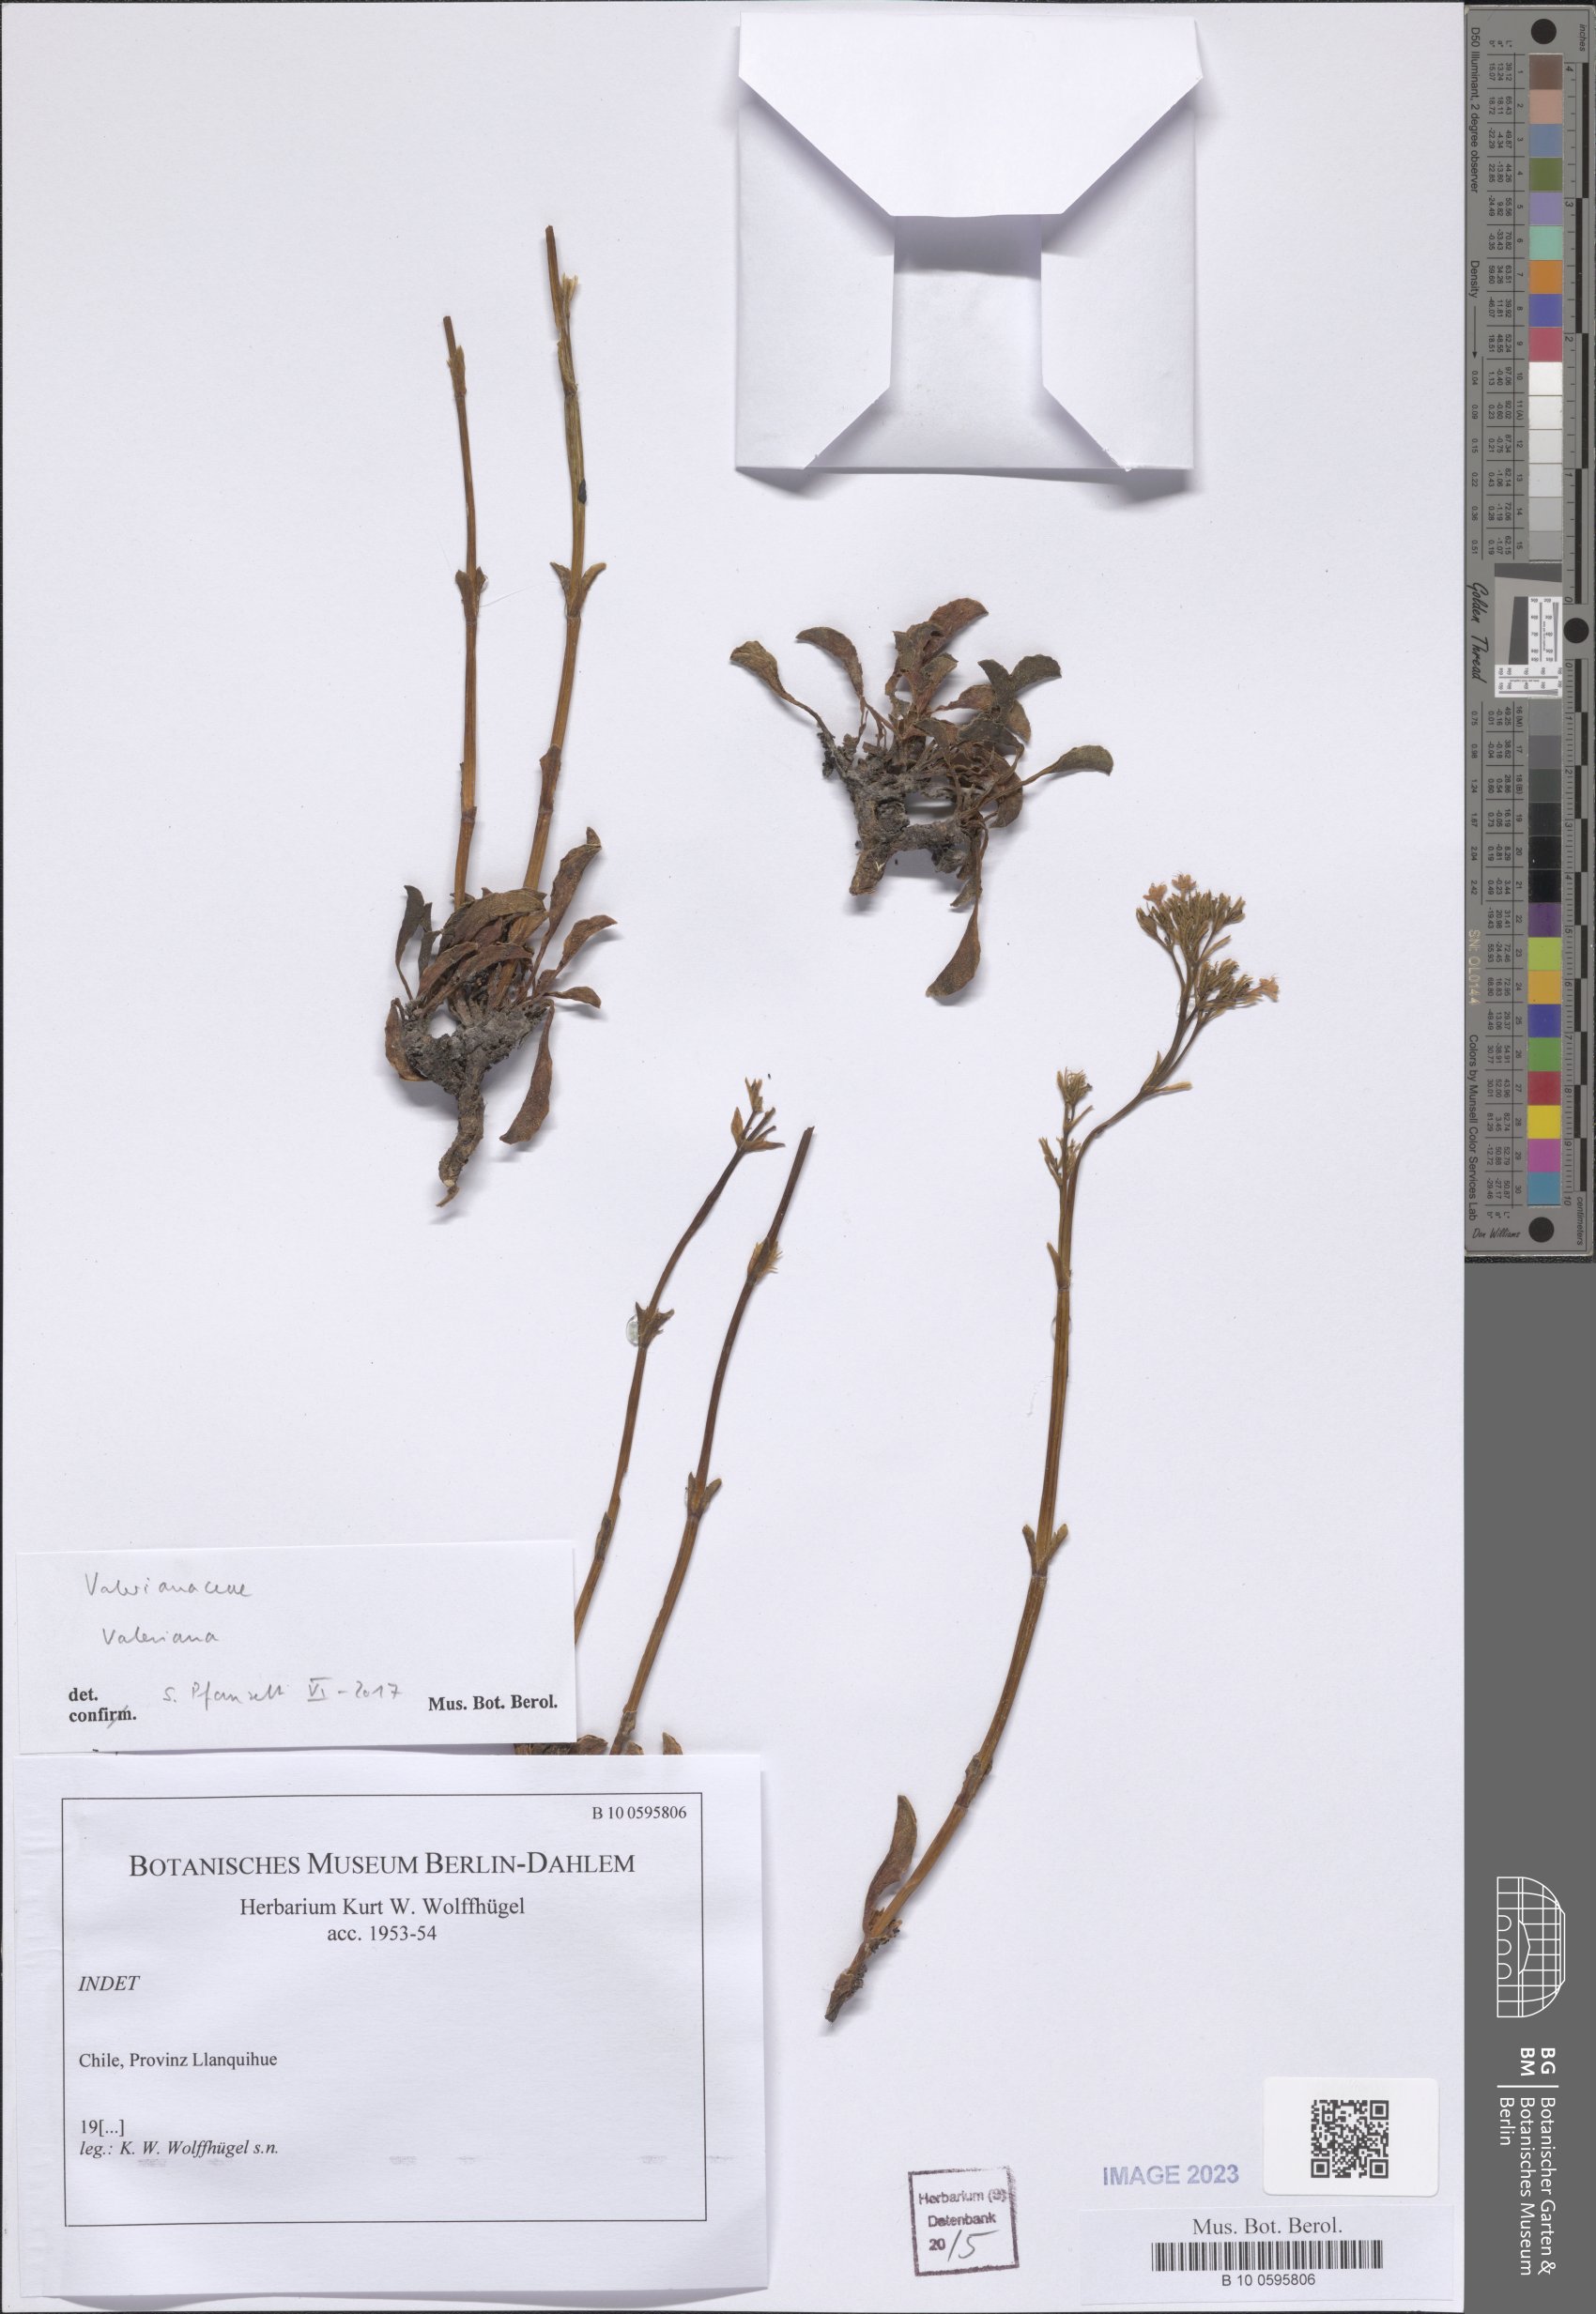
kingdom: Plantae
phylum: Tracheophyta
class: Magnoliopsida
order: Dipsacales
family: Caprifoliaceae
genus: Valeriana
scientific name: Valeriana
